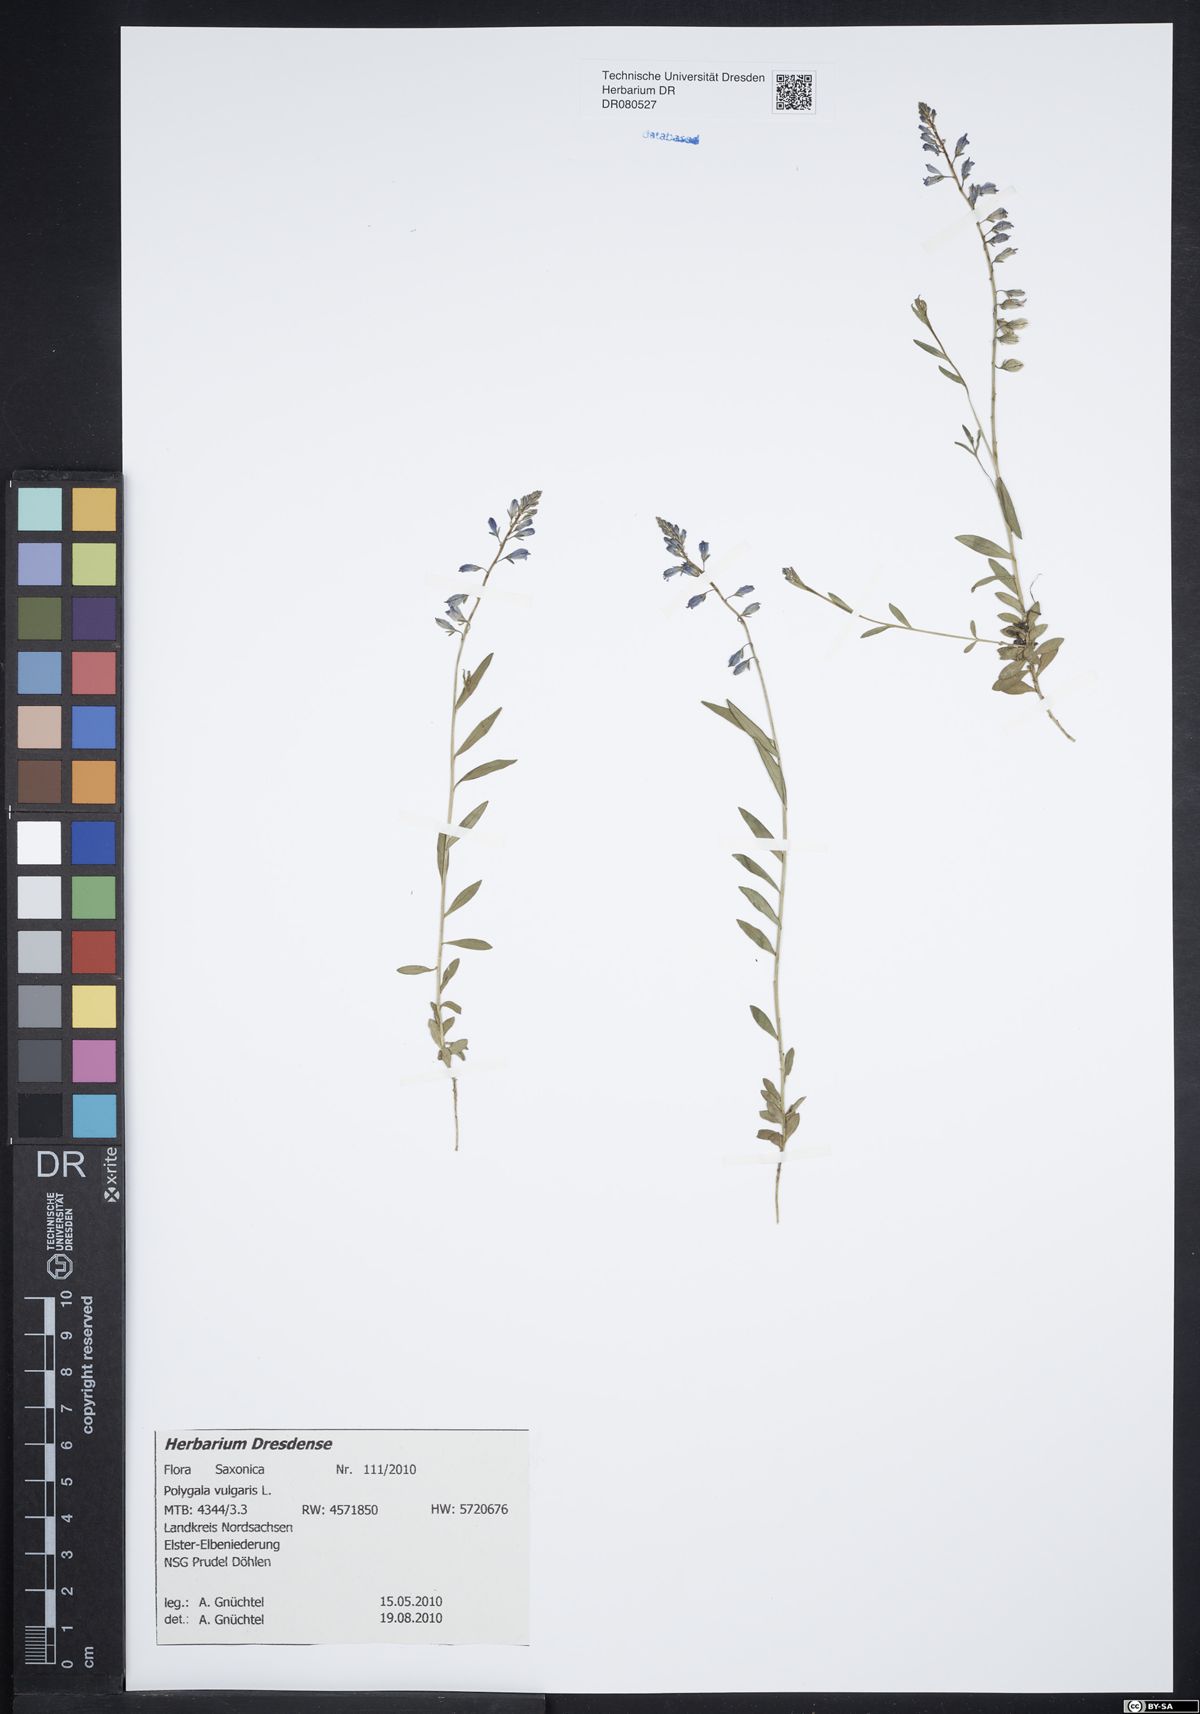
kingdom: Plantae
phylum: Tracheophyta
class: Magnoliopsida
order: Fabales
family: Polygalaceae
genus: Polygala
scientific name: Polygala vulgaris
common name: Common milkwort
